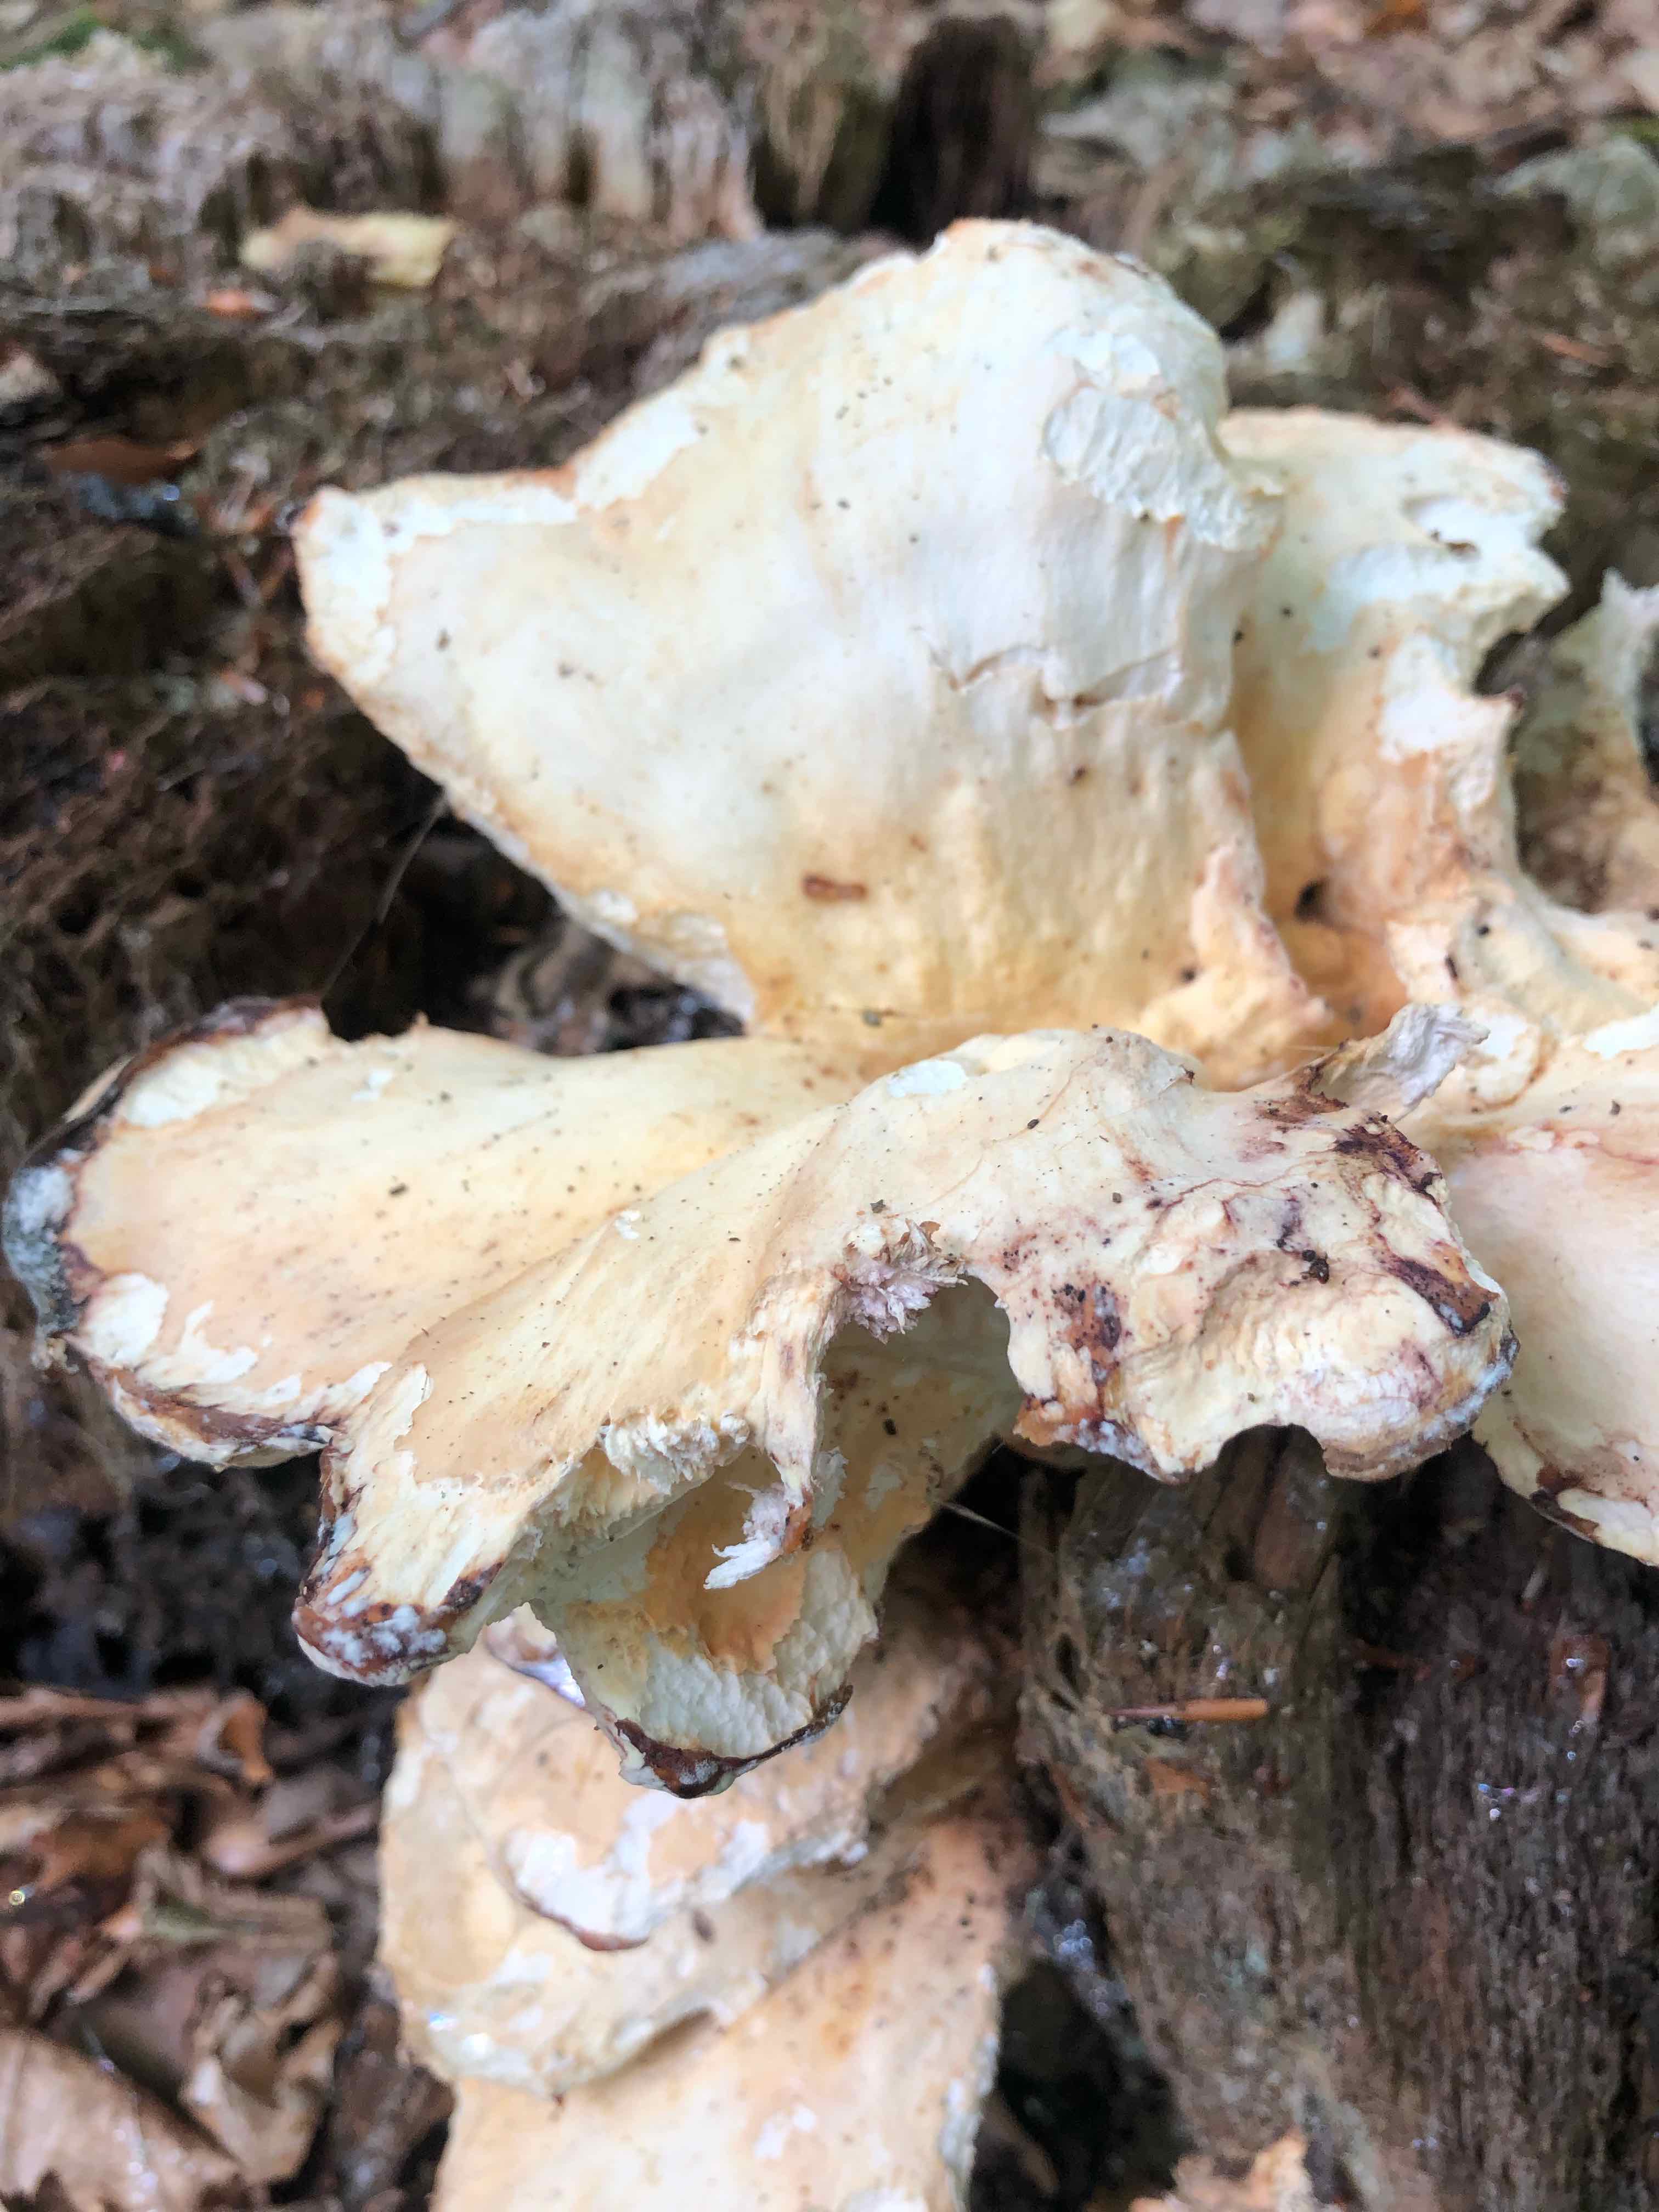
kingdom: Fungi
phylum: Basidiomycota
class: Agaricomycetes
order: Polyporales
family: Laetiporaceae
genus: Laetiporus
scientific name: Laetiporus sulphureus
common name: svovlporesvamp
